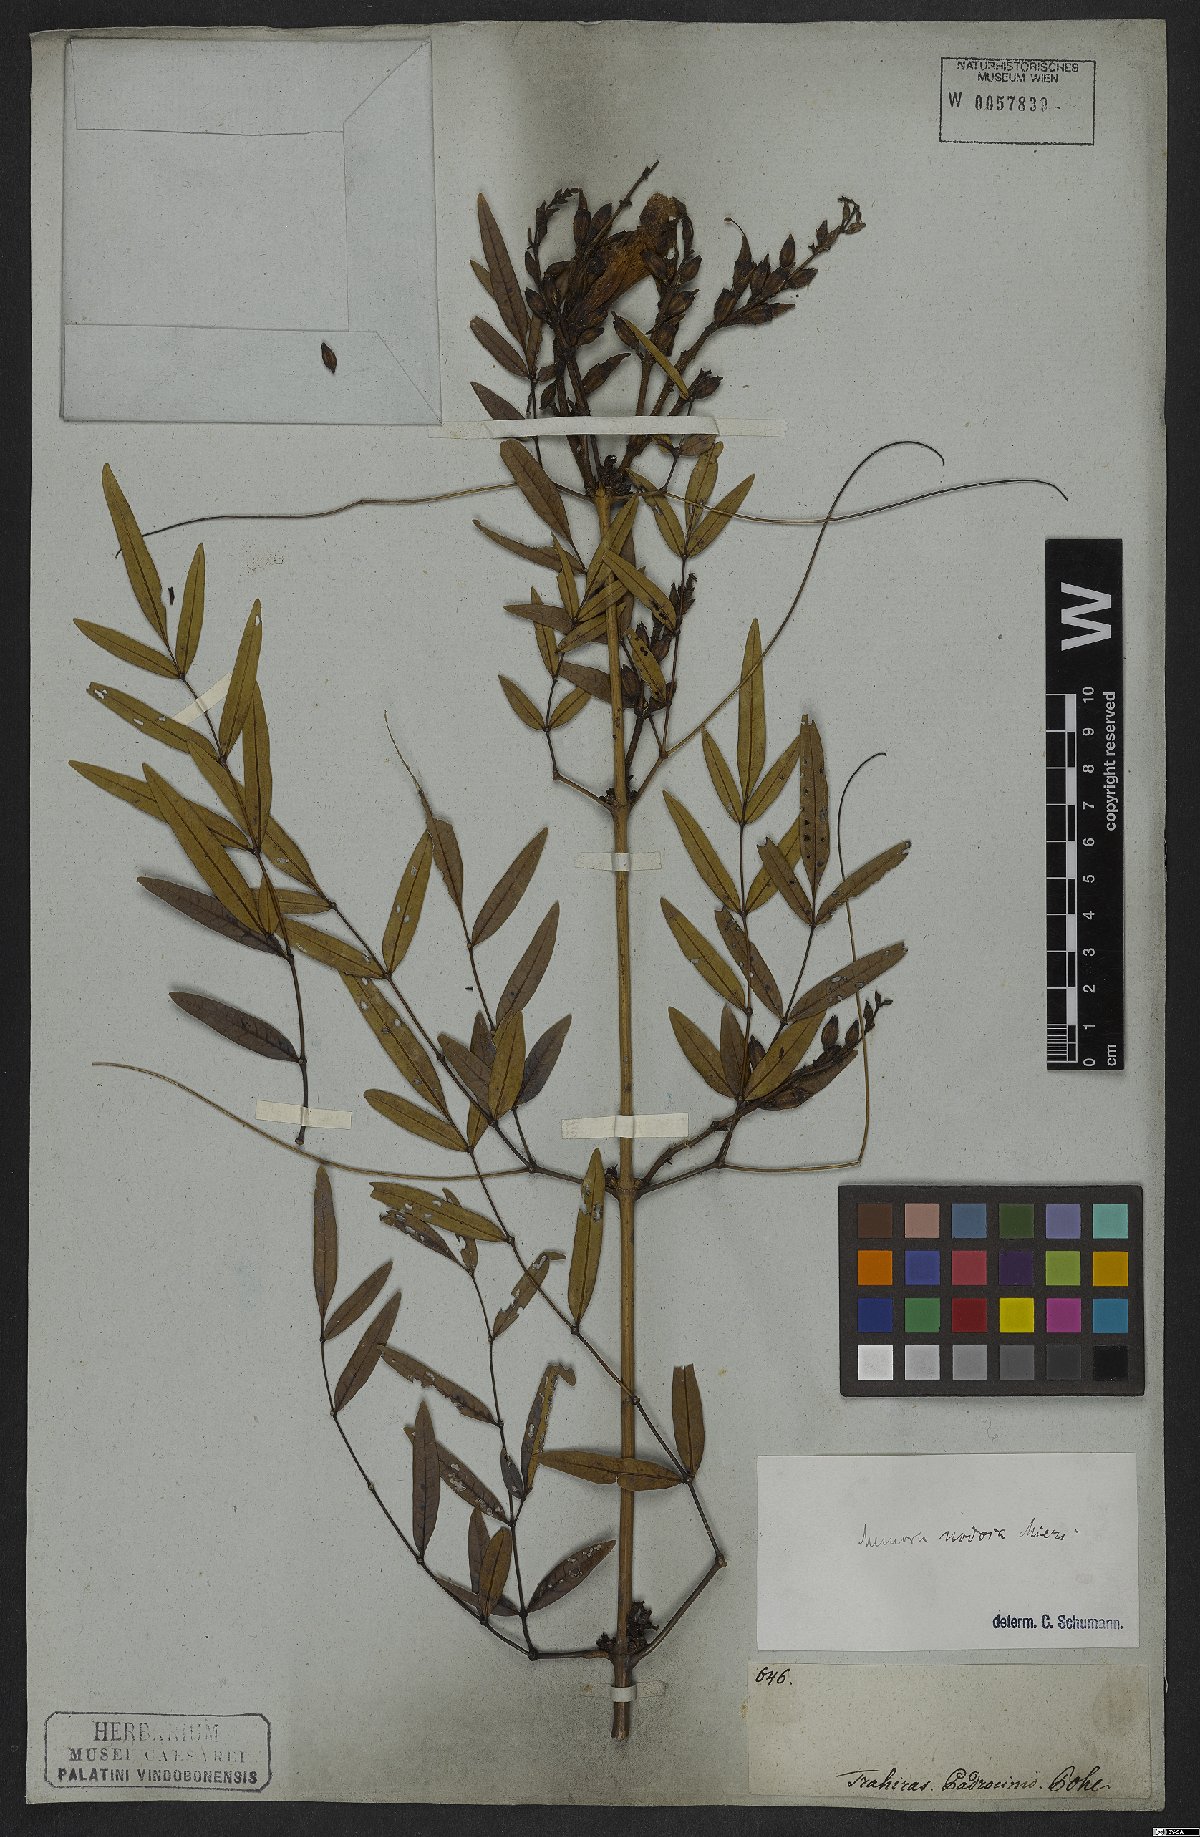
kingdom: Plantae
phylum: Tracheophyta
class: Magnoliopsida
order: Lamiales
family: Bignoniaceae
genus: Adenocalymma
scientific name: Adenocalymma nodosum
